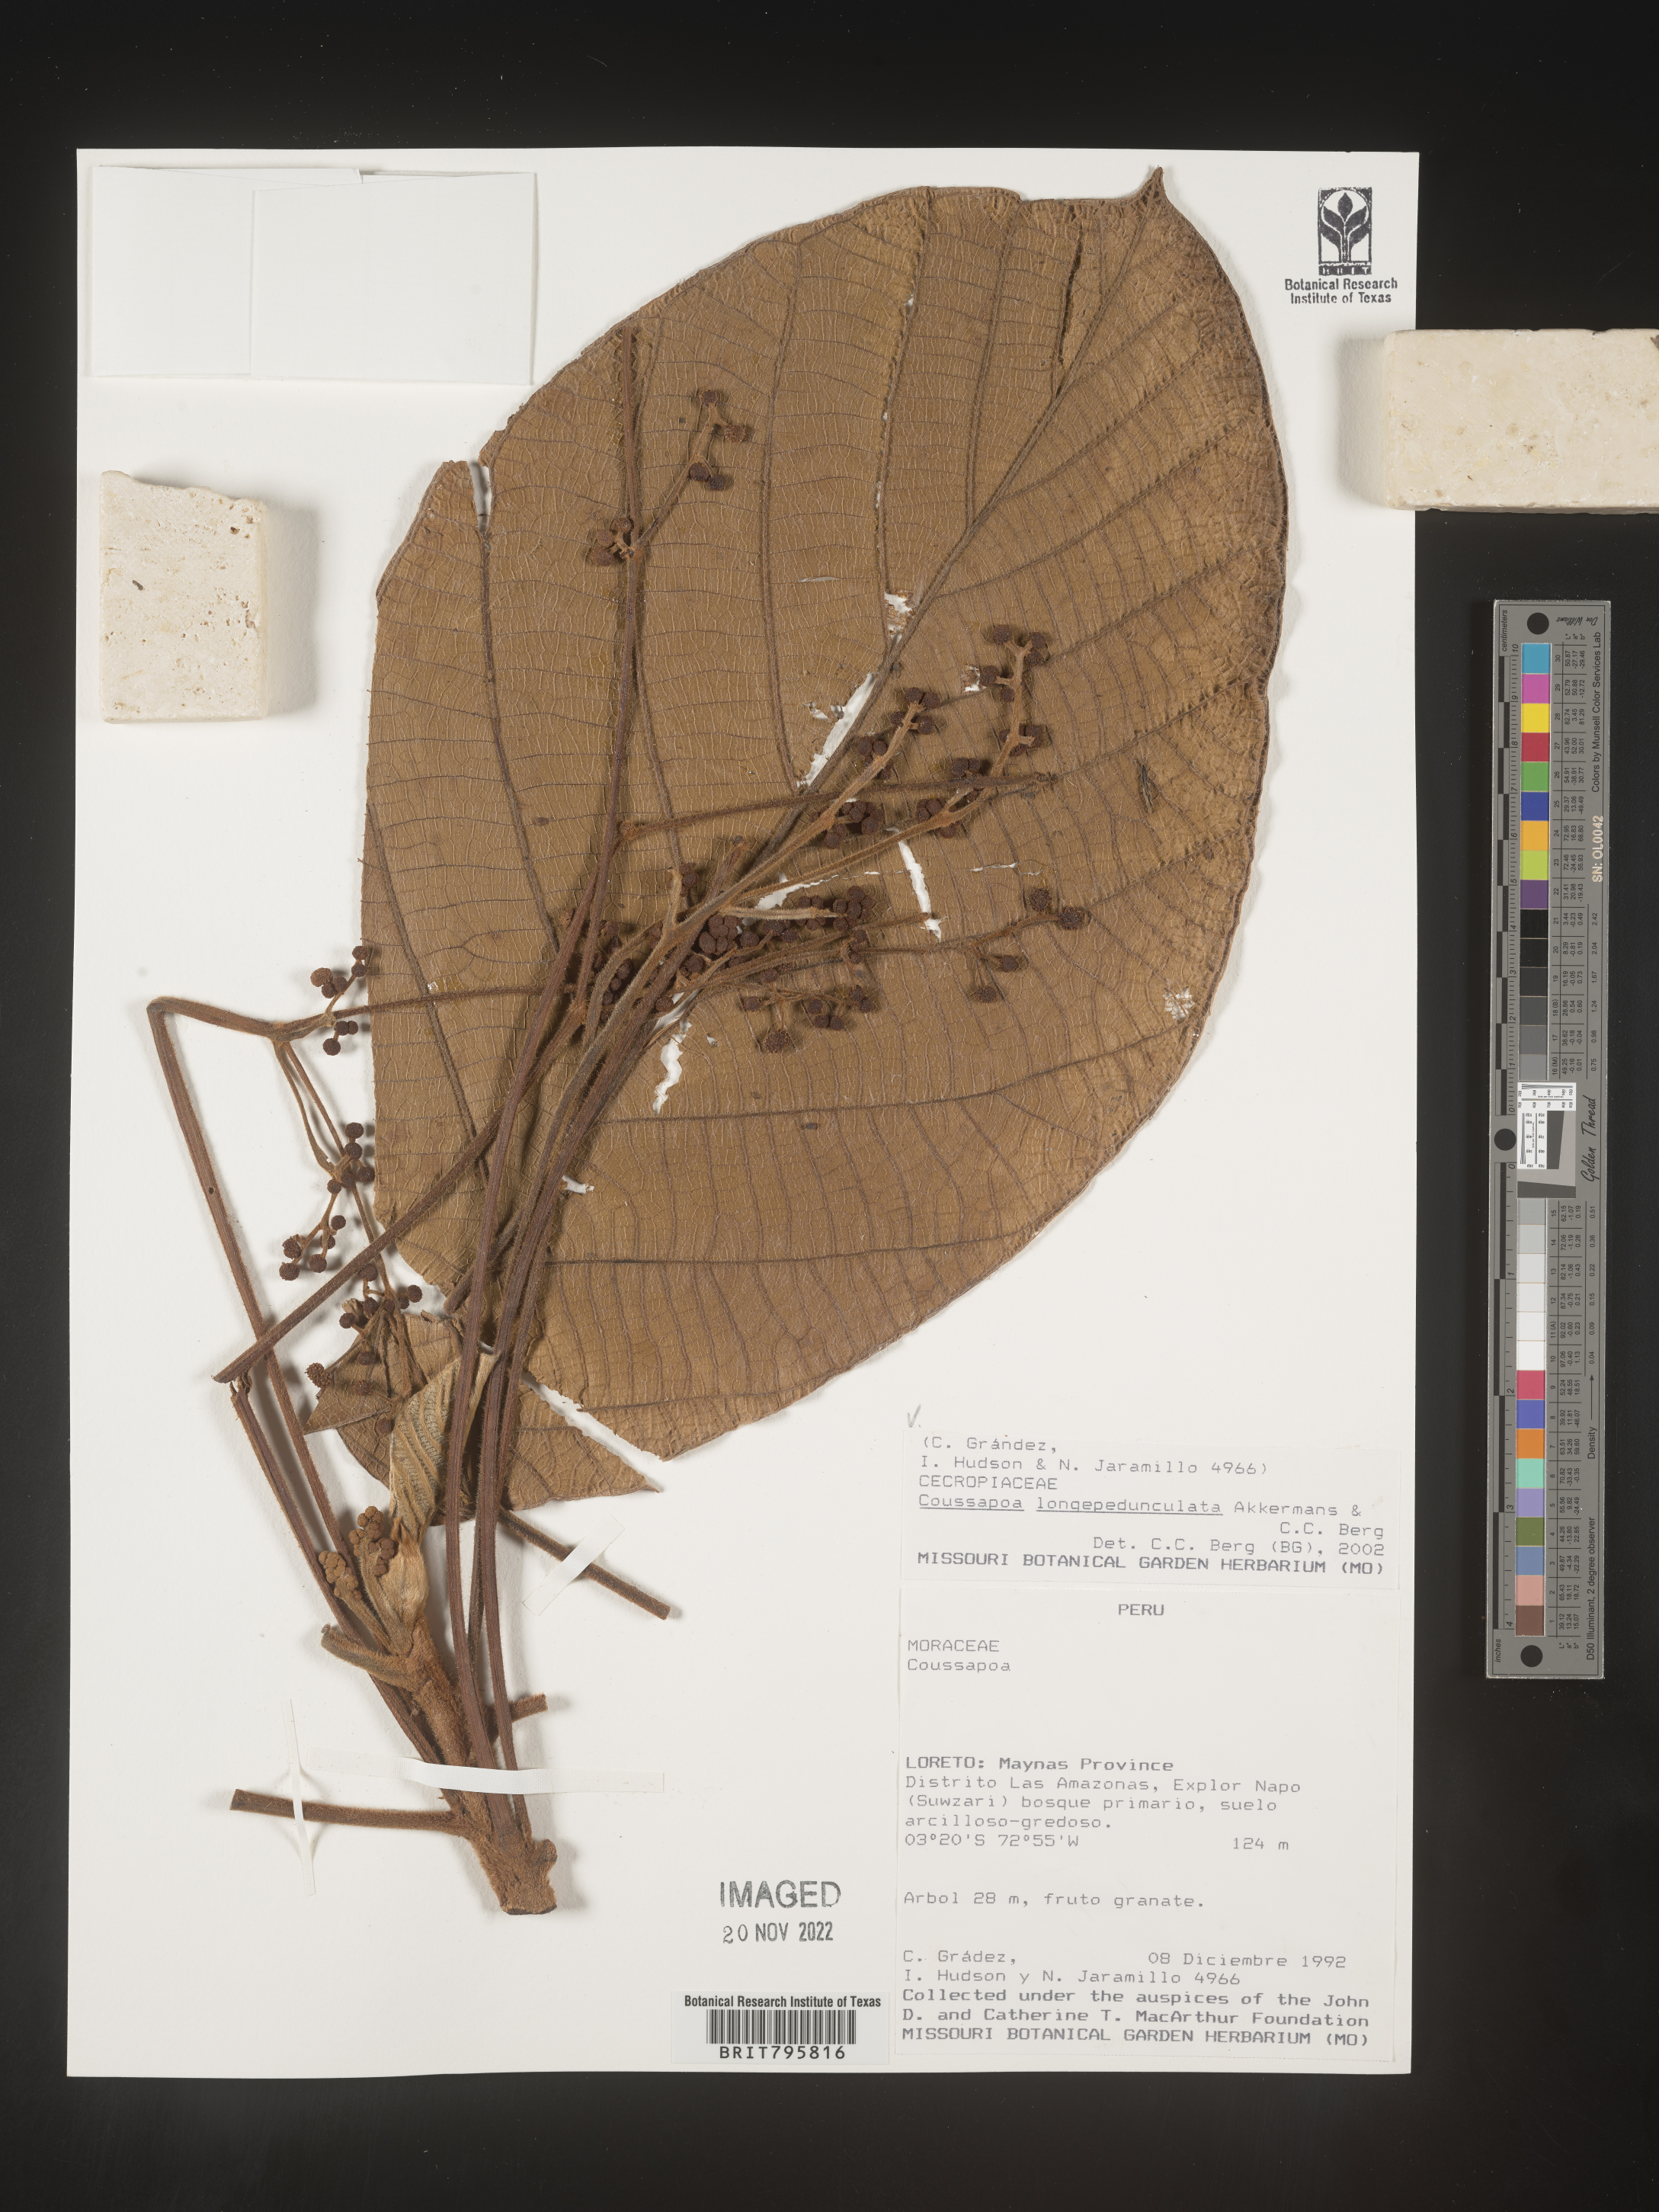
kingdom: Plantae
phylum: Tracheophyta
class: Magnoliopsida
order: Rosales
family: Urticaceae
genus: Coussapoa
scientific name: Coussapoa
